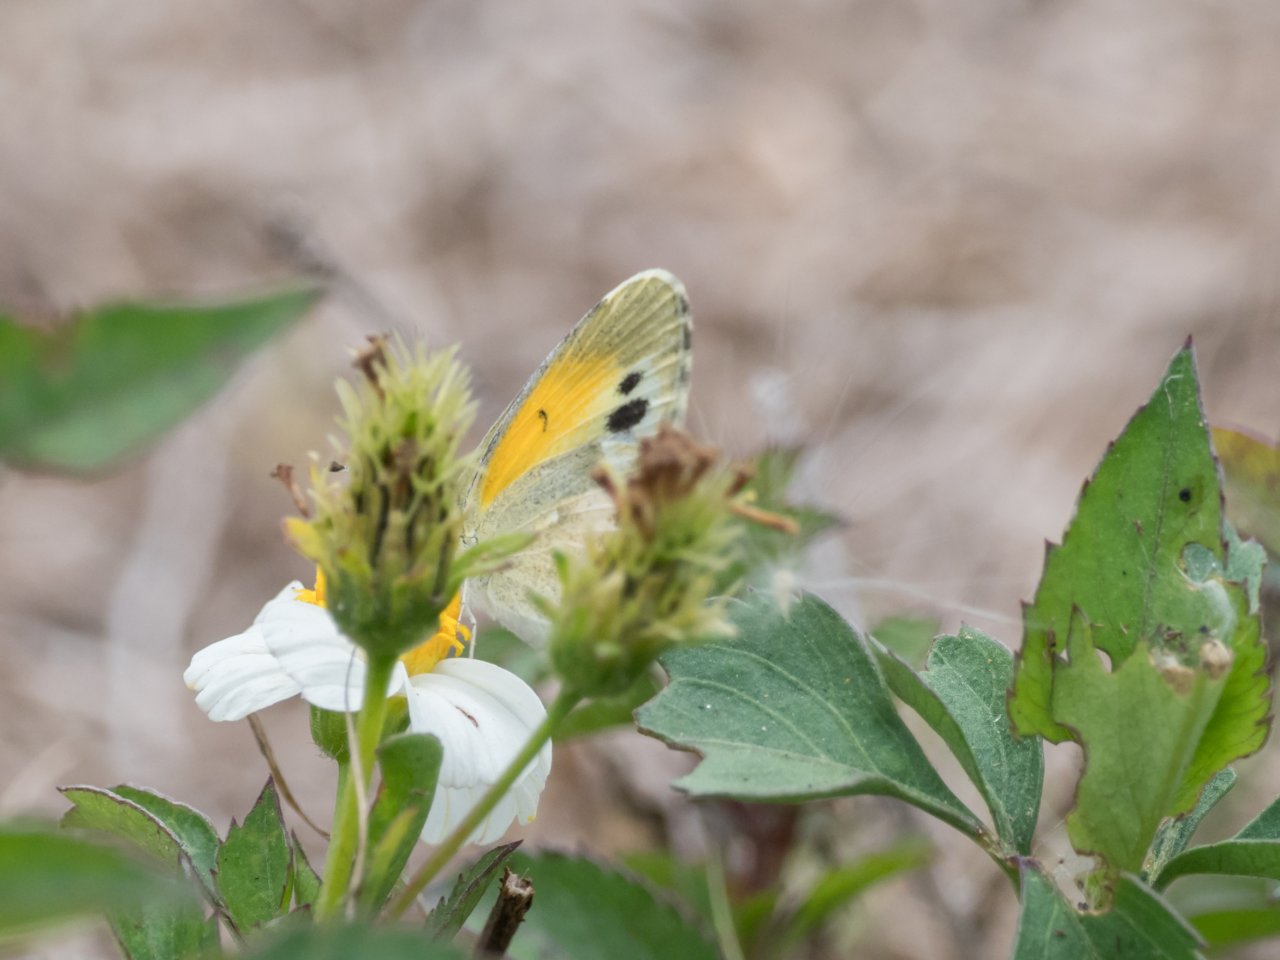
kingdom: Animalia
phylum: Arthropoda
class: Insecta
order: Lepidoptera
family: Pieridae
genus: Nathalis
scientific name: Nathalis iole
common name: Dainty Sulphur
